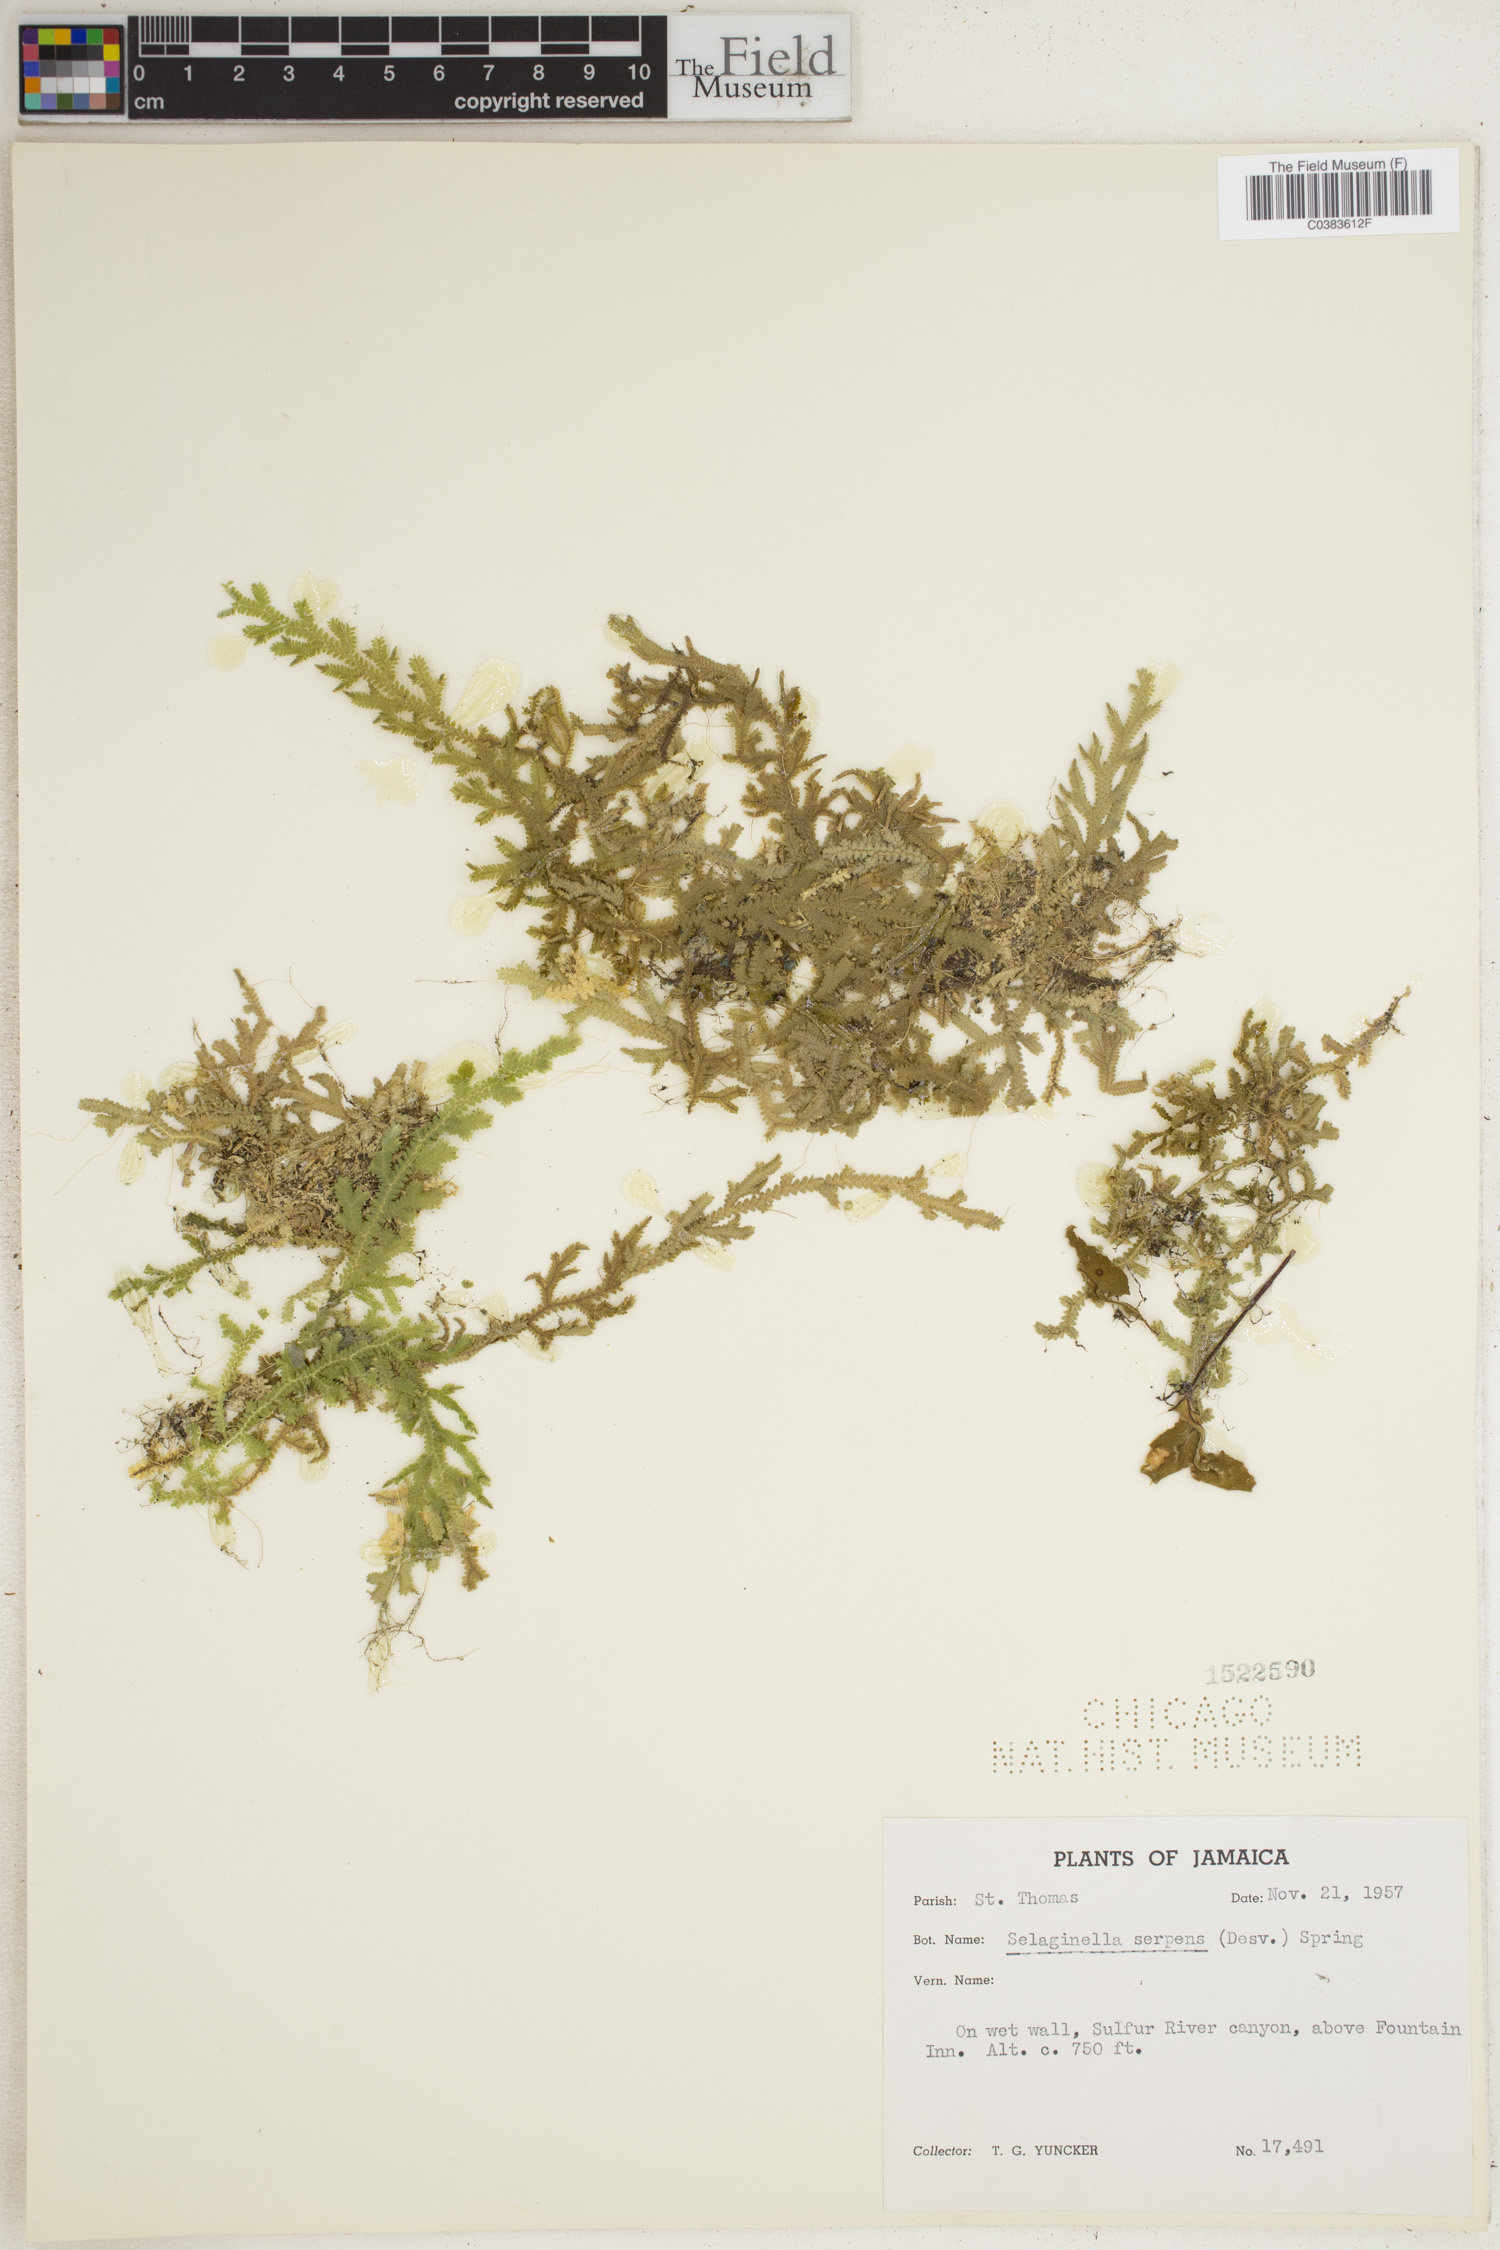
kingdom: Plantae
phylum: Tracheophyta
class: Lycopodiopsida
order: Selaginellales
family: Selaginellaceae
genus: Selaginella
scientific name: Selaginella serpens
